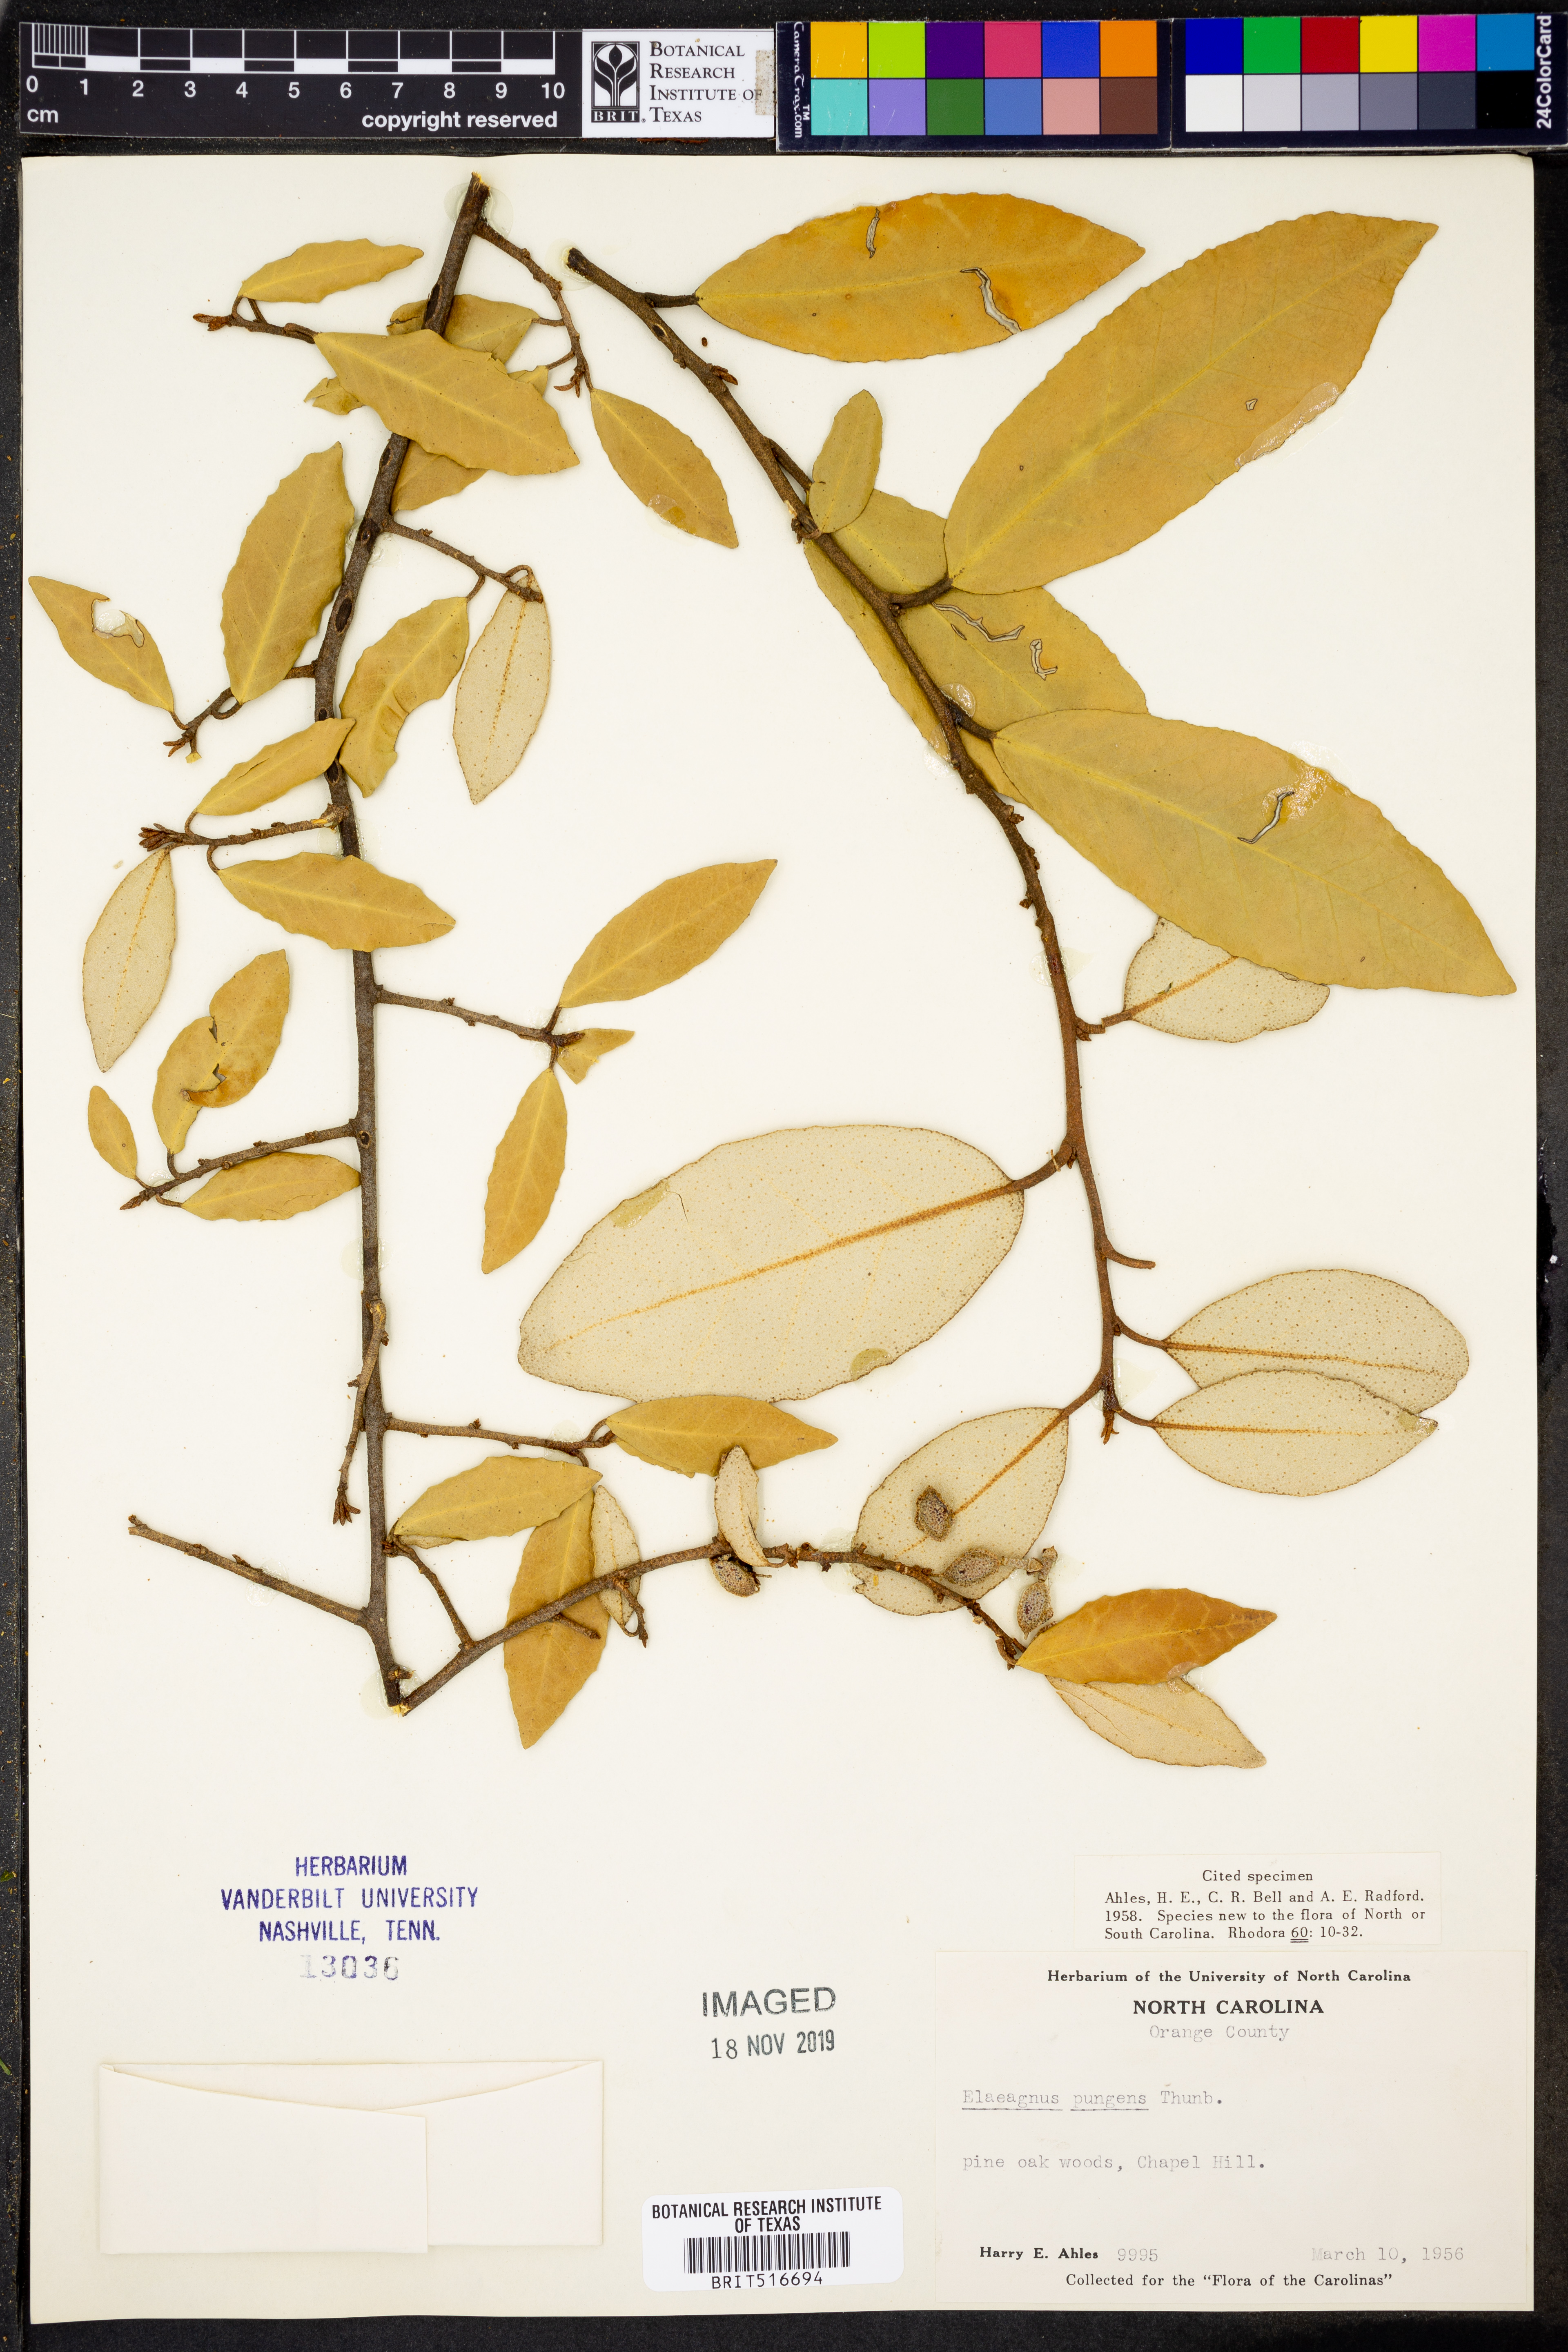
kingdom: Plantae
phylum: Tracheophyta
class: Magnoliopsida
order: Rosales
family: Elaeagnaceae
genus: Elaeagnus
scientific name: Elaeagnus pungens
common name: Spiny oleaster
